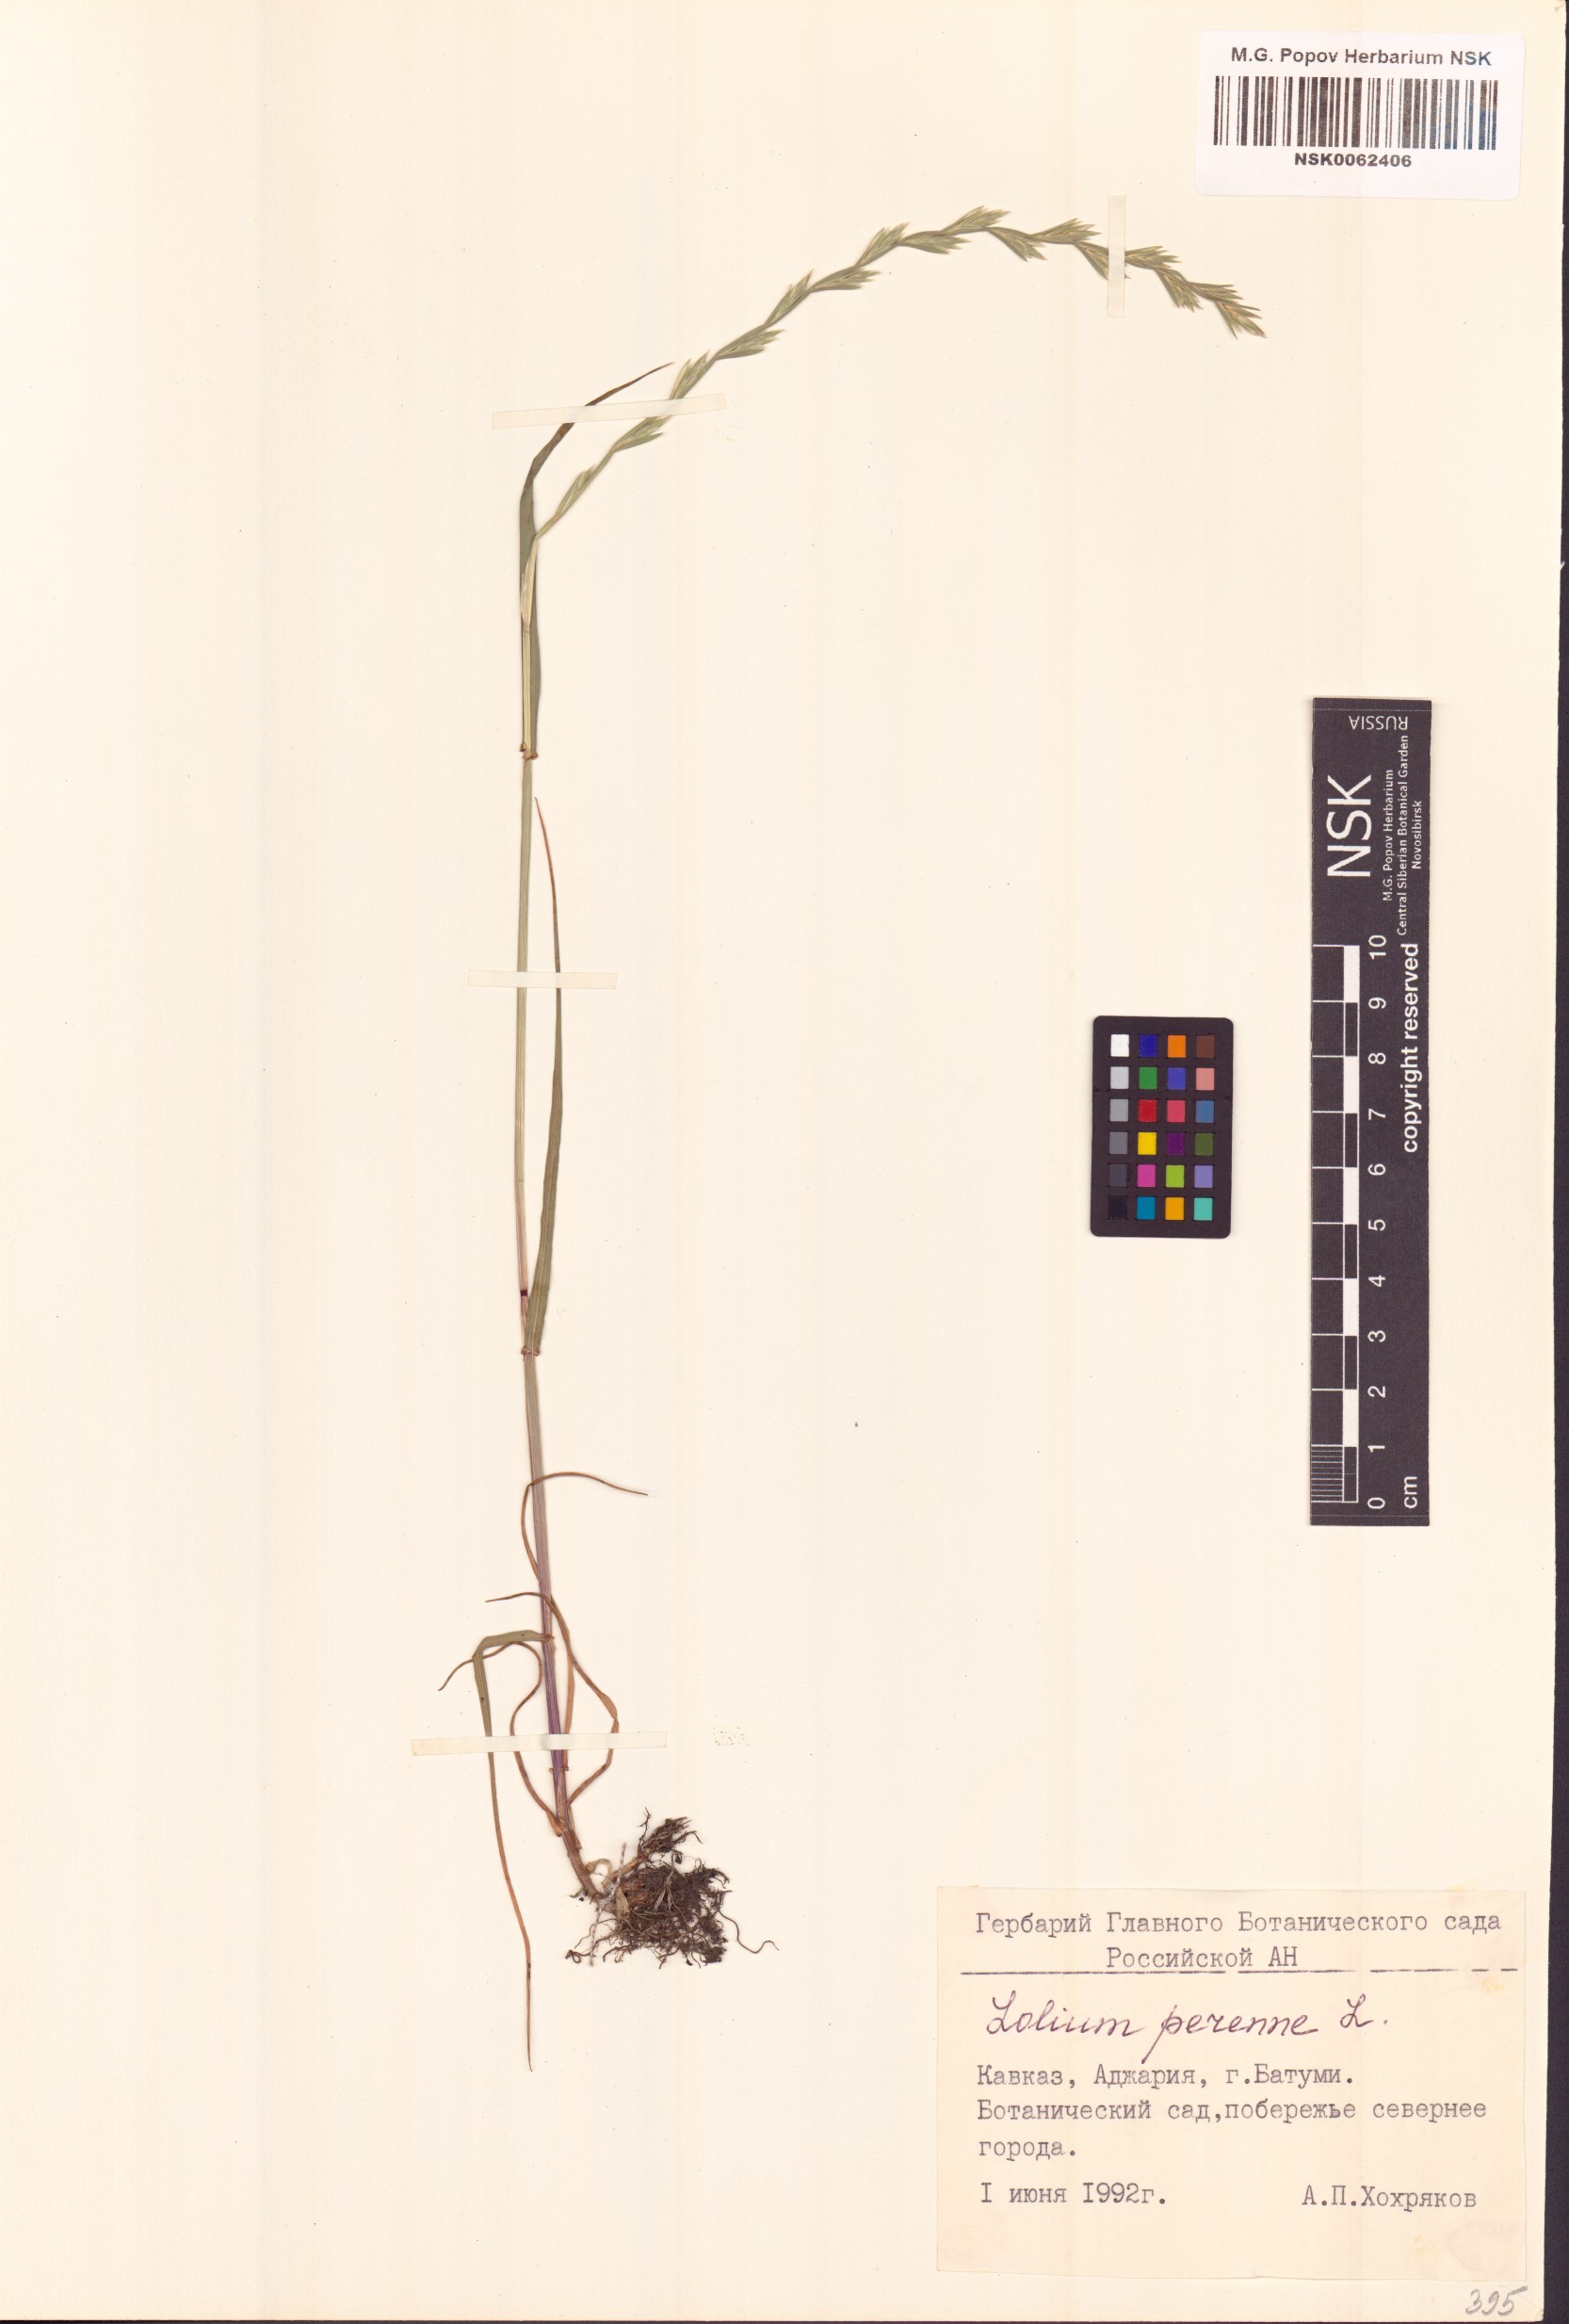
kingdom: Plantae
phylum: Tracheophyta
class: Liliopsida
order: Poales
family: Poaceae
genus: Lolium
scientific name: Lolium perenne
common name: Perennial ryegrass
